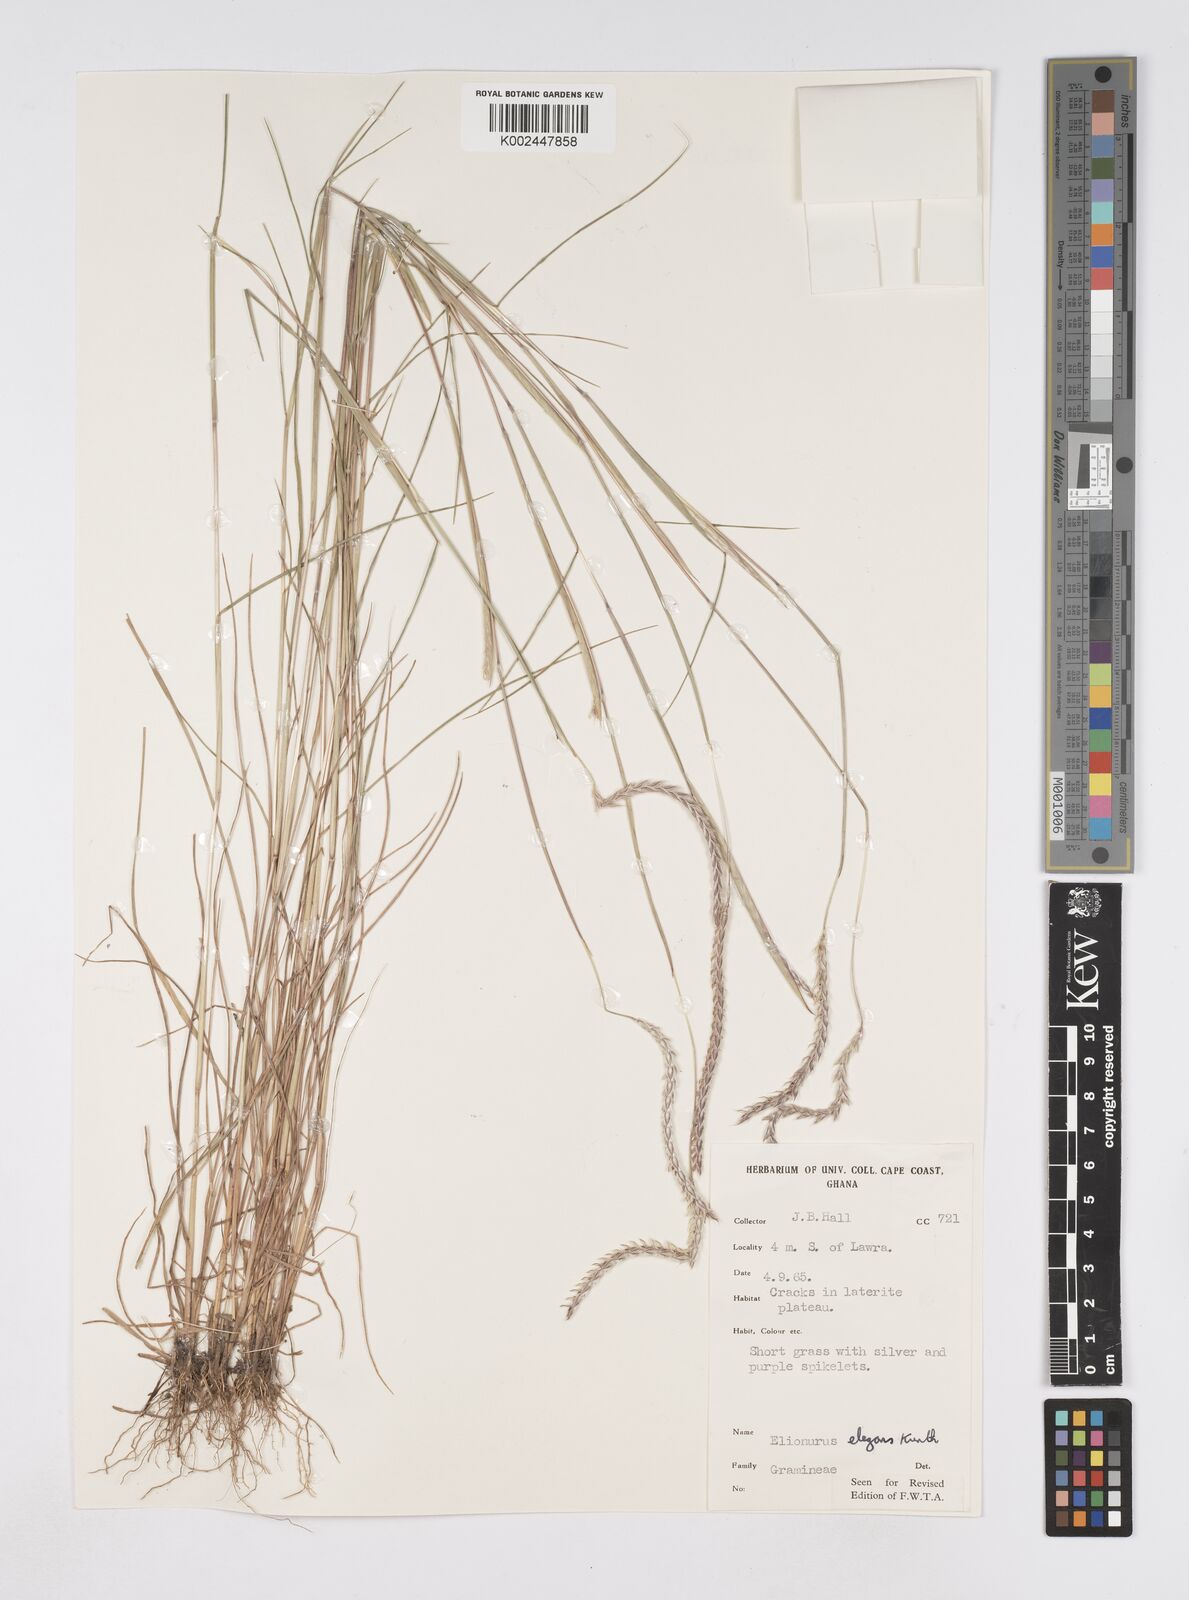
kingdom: Plantae
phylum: Tracheophyta
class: Liliopsida
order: Poales
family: Poaceae
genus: Elionurus
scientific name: Elionurus elegans
